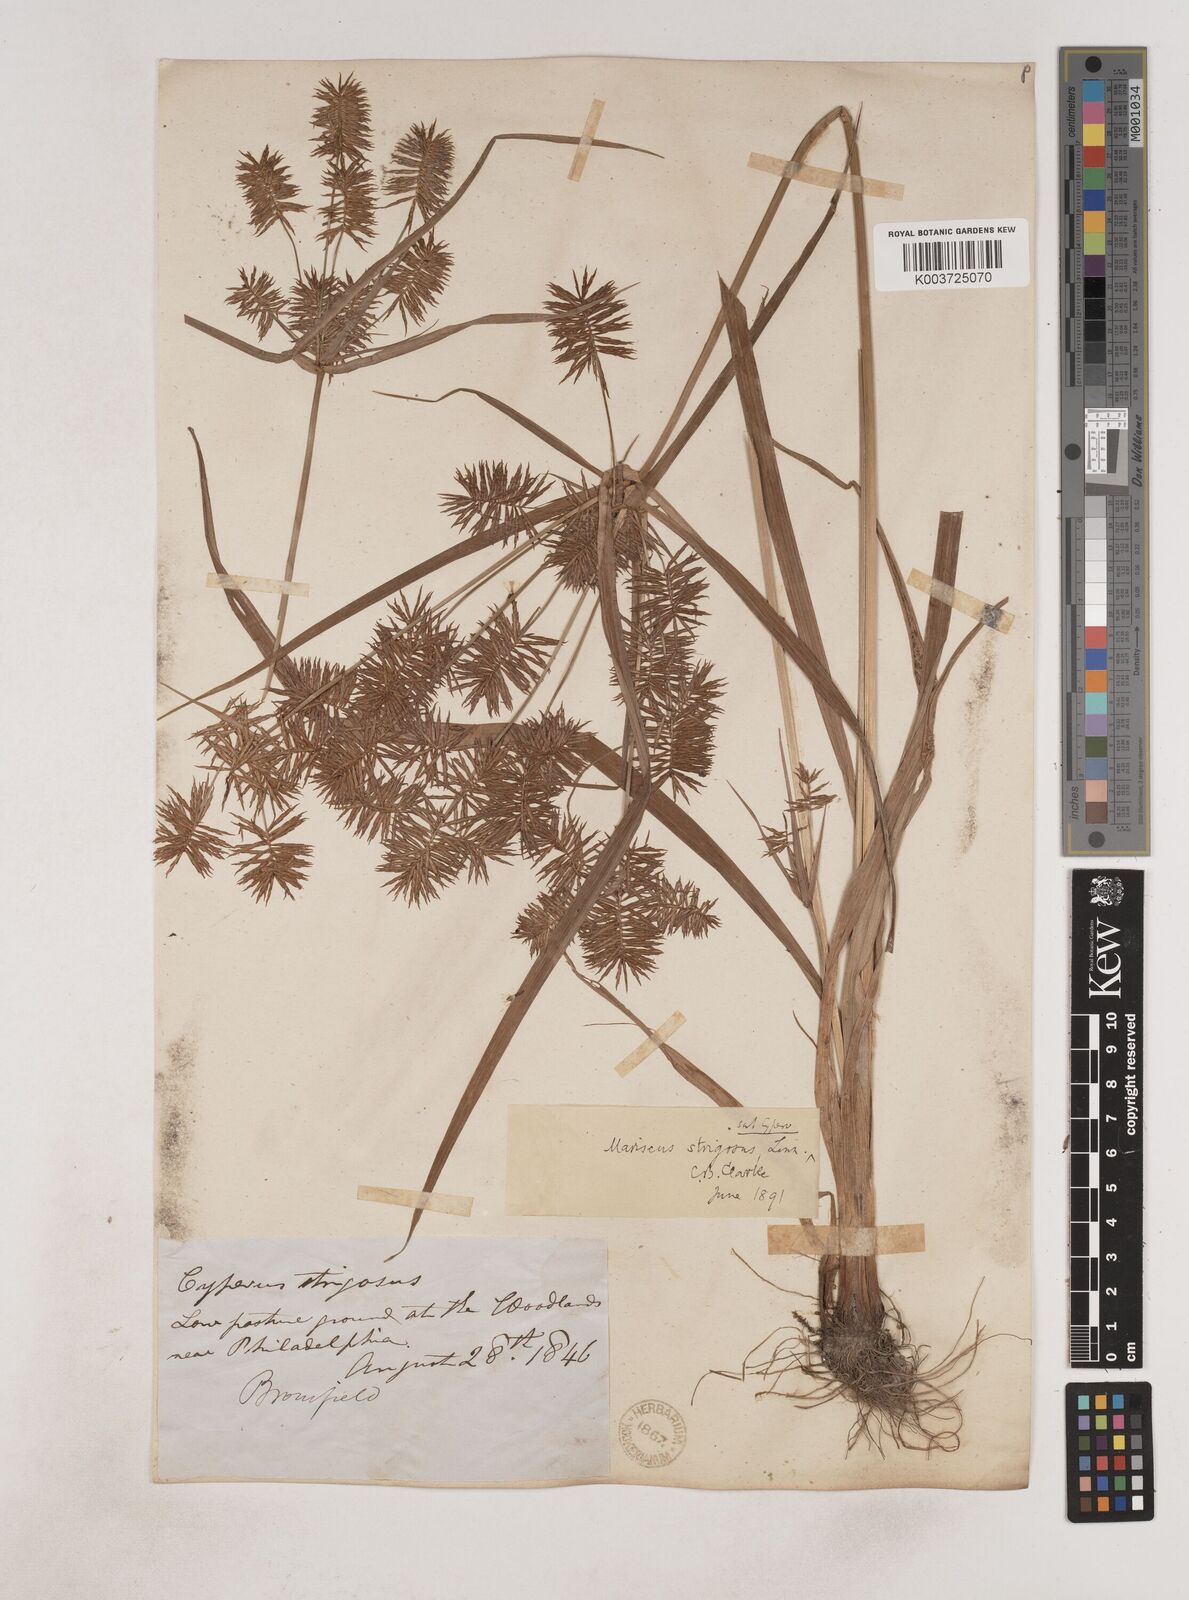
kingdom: Plantae
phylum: Tracheophyta
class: Liliopsida
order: Poales
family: Cyperaceae
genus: Cyperus
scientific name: Cyperus strigosus
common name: False nutsedge
